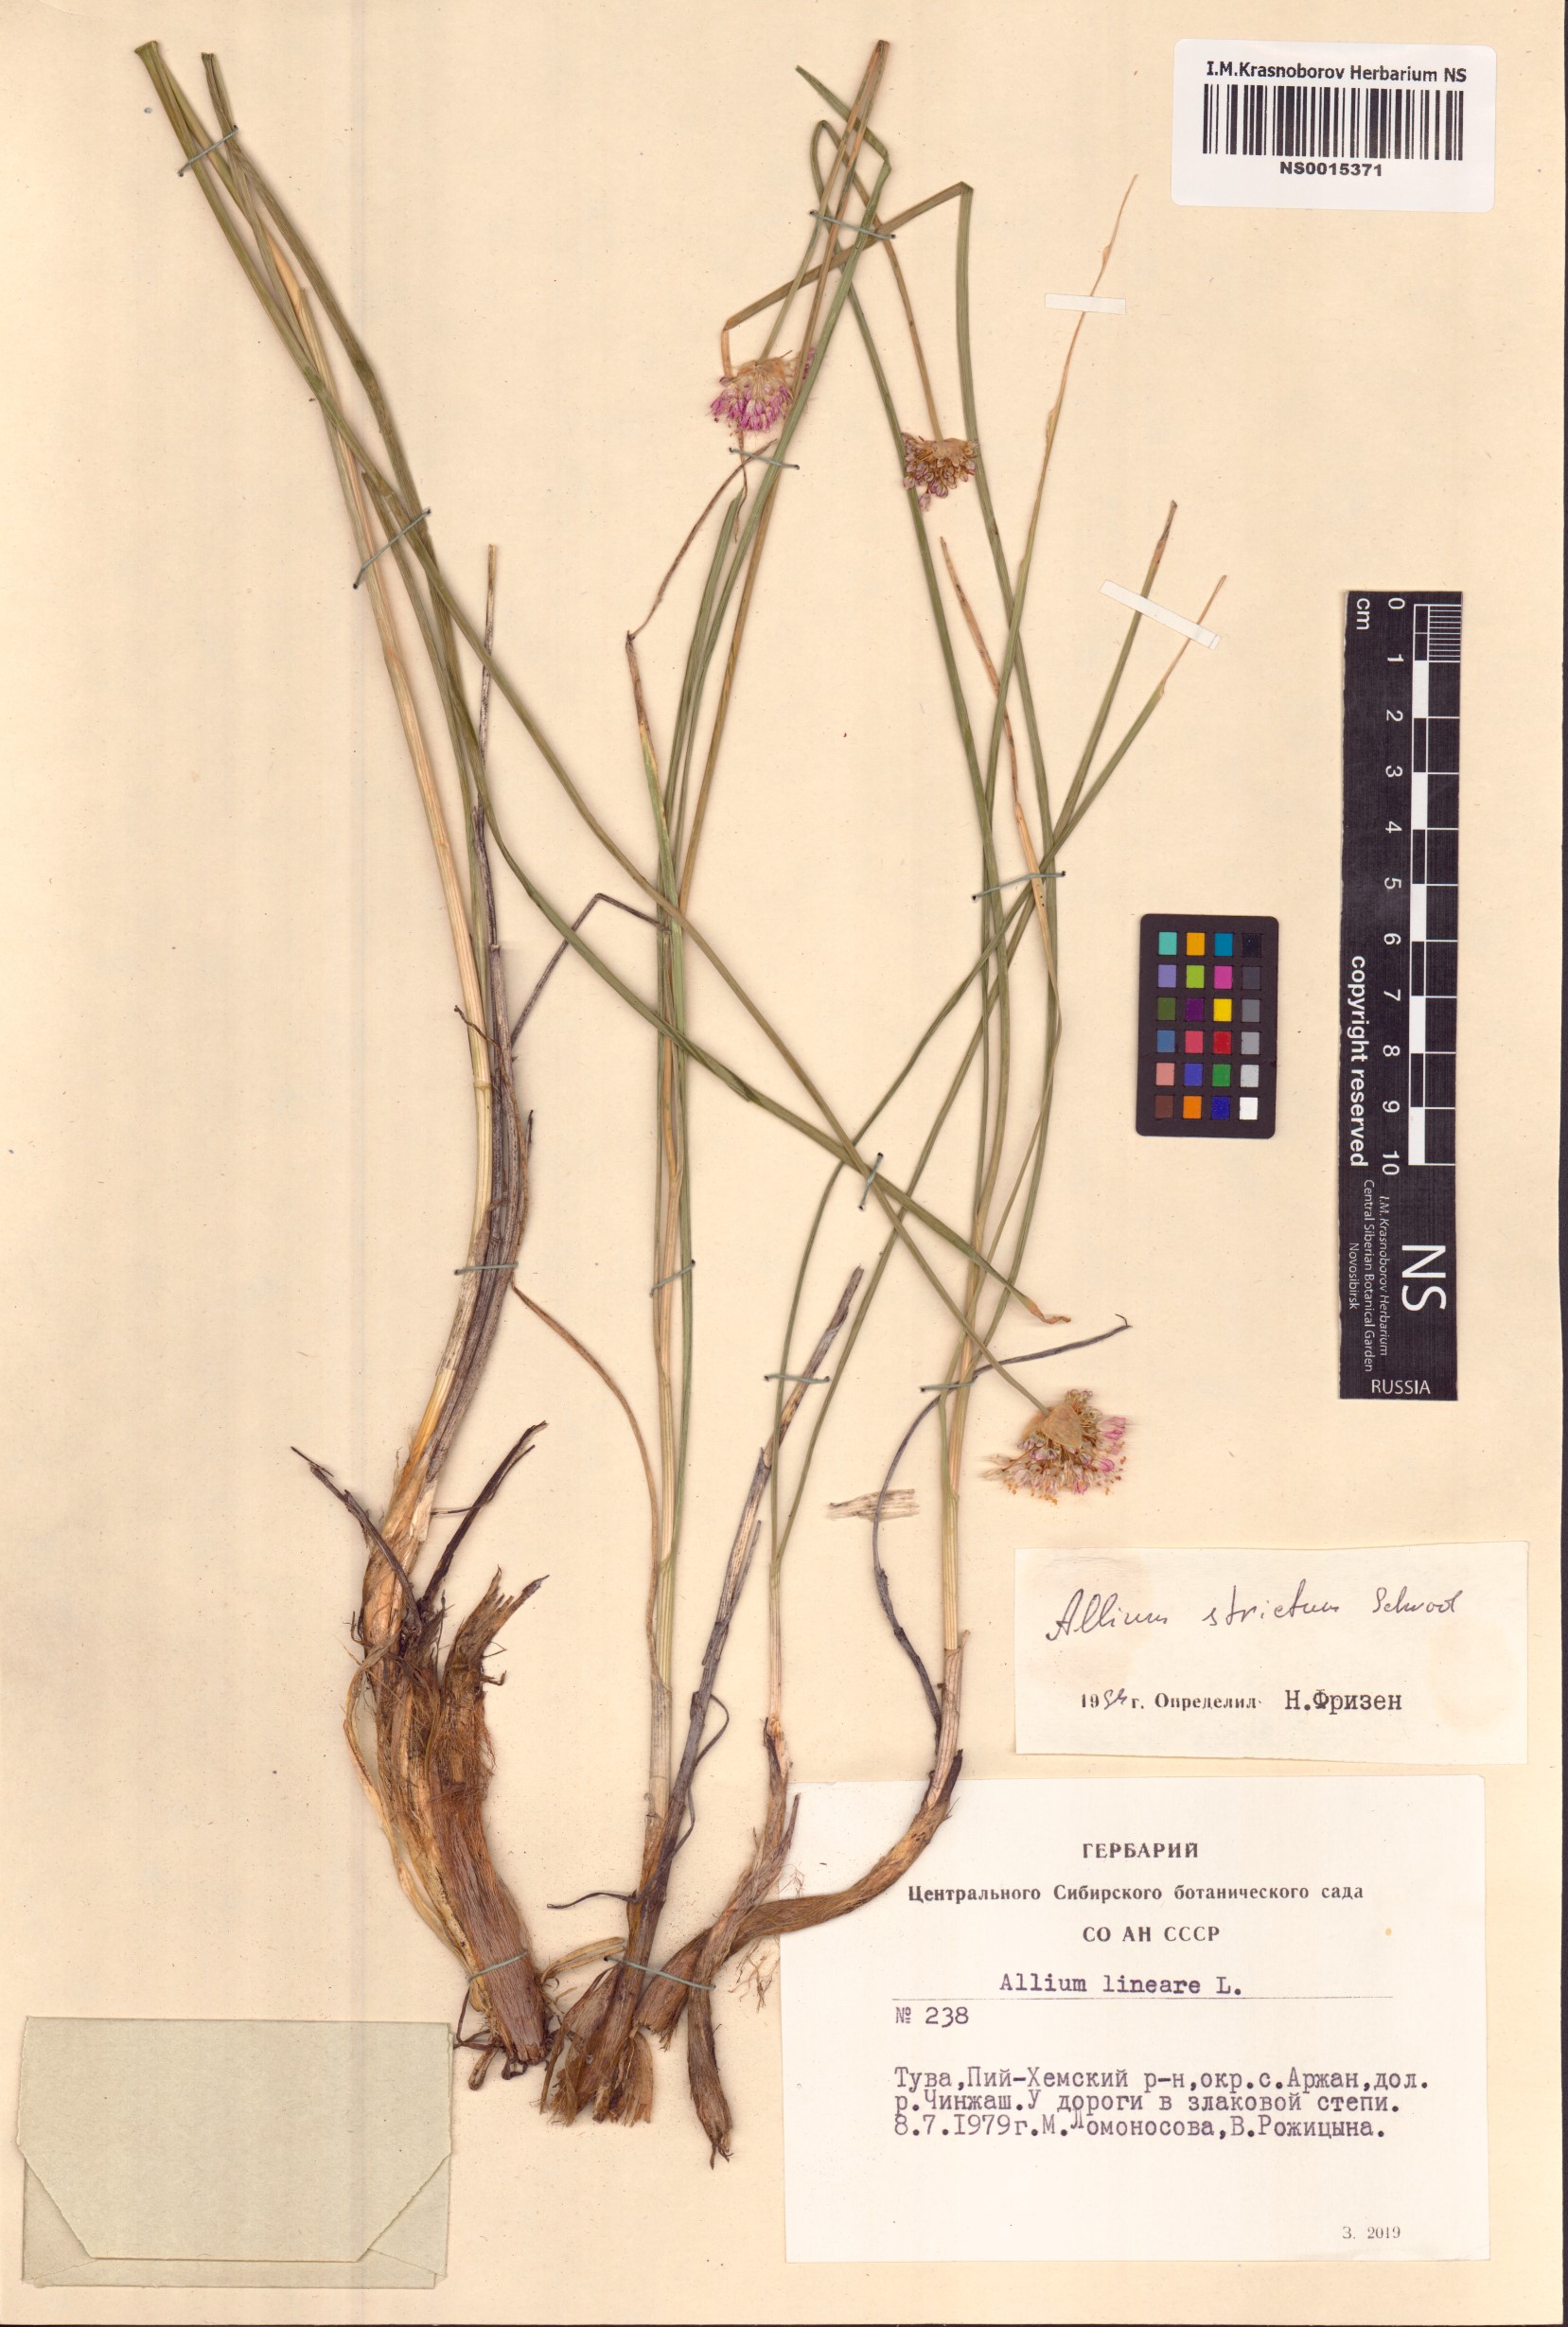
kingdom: Plantae
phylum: Tracheophyta
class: Liliopsida
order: Asparagales
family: Amaryllidaceae
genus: Allium
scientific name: Allium strictum
